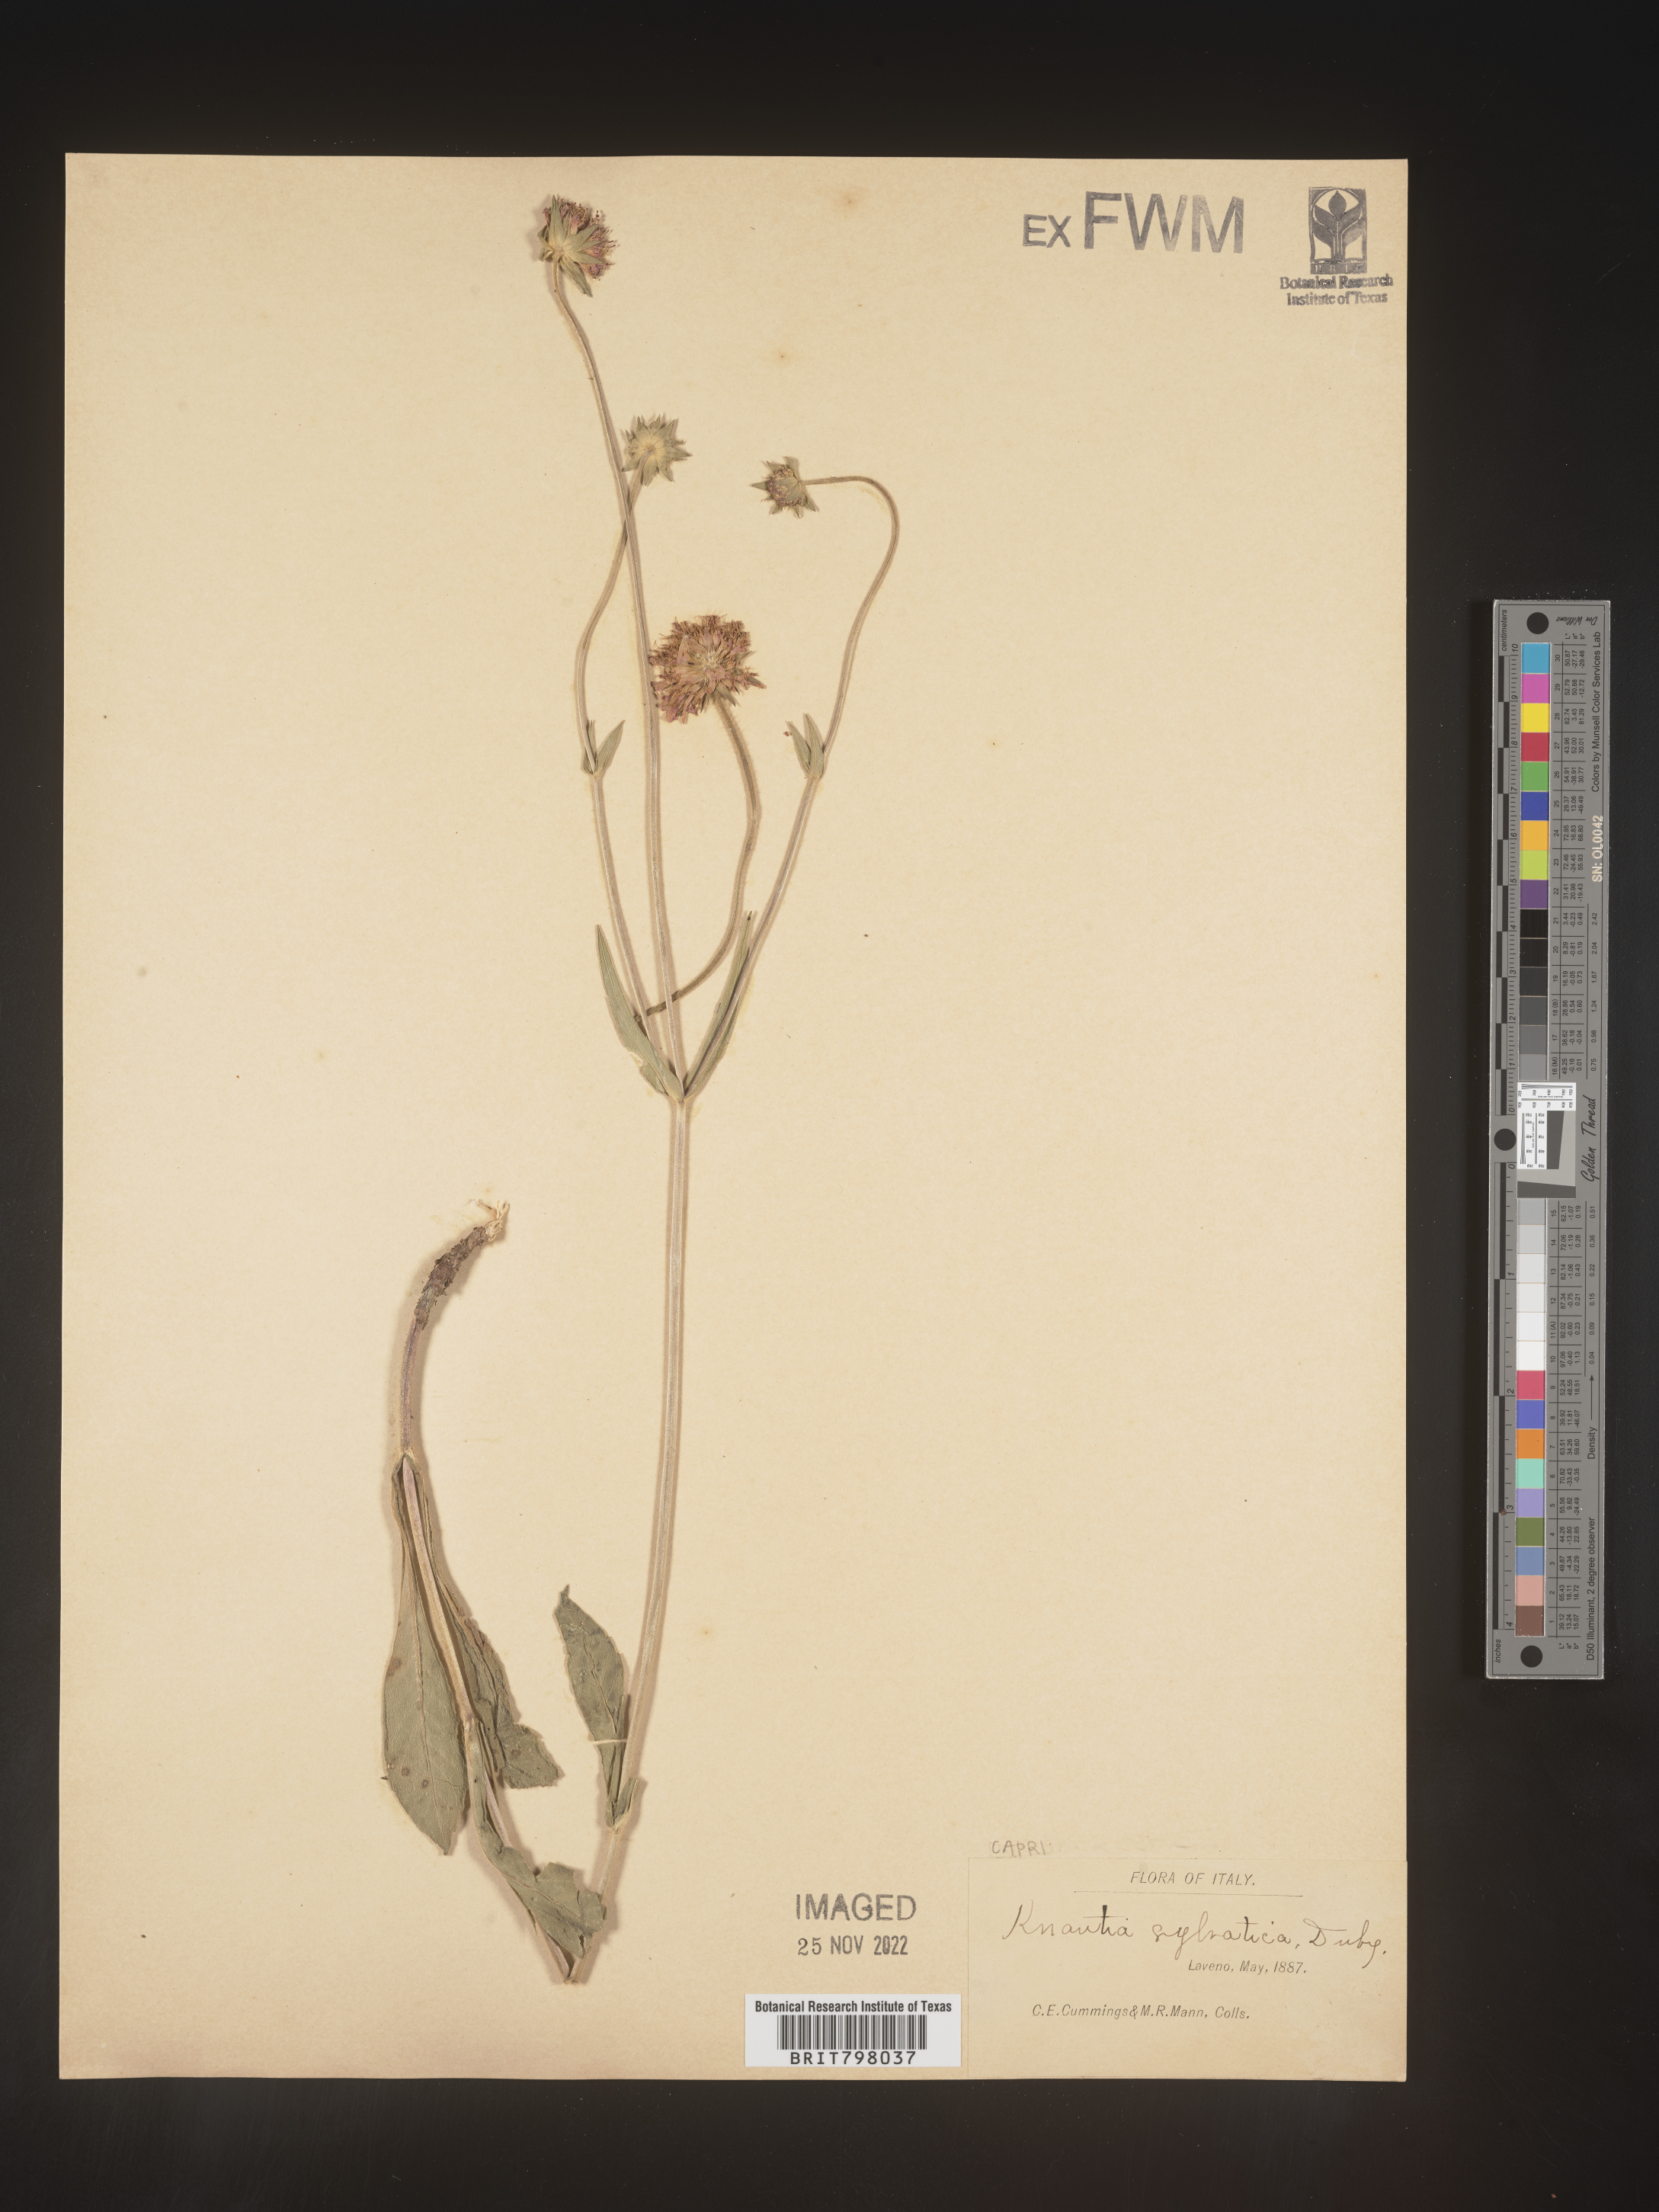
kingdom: Plantae
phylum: Tracheophyta
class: Magnoliopsida
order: Dipsacales
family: Caprifoliaceae
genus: Knautia
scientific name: Knautia
